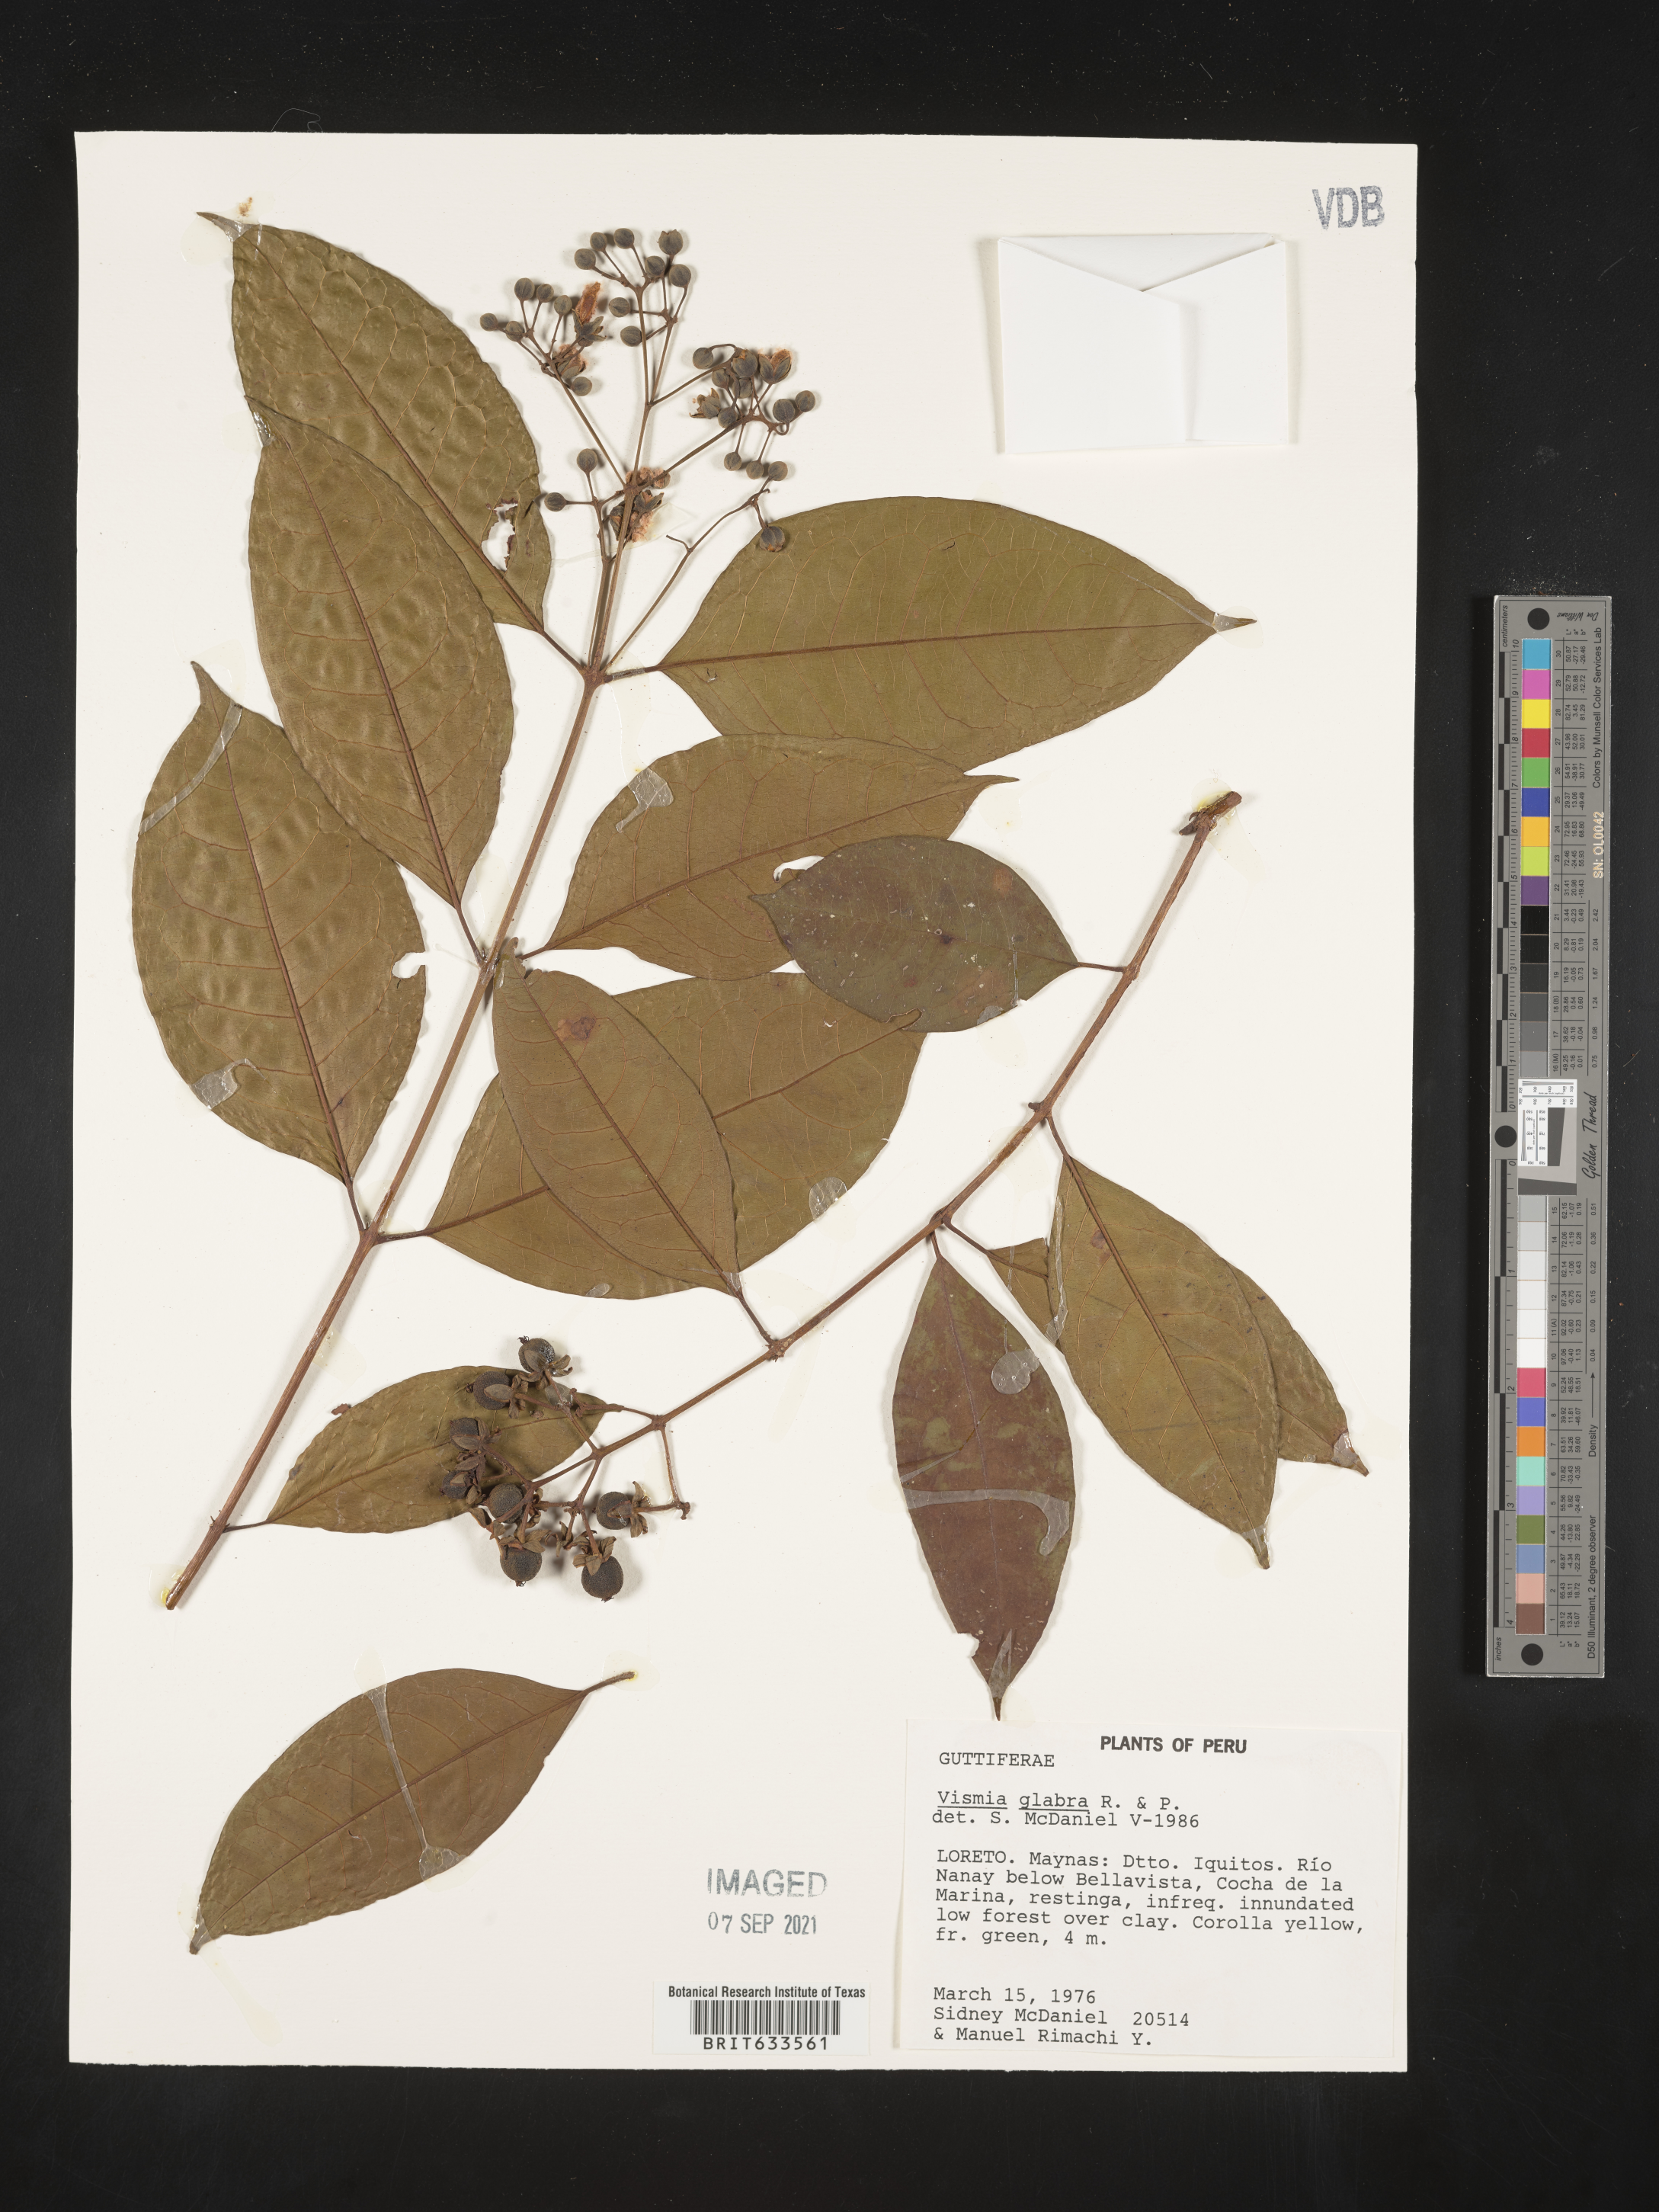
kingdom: Plantae
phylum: Tracheophyta
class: Magnoliopsida
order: Malpighiales
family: Hypericaceae
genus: Vismia
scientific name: Vismia
